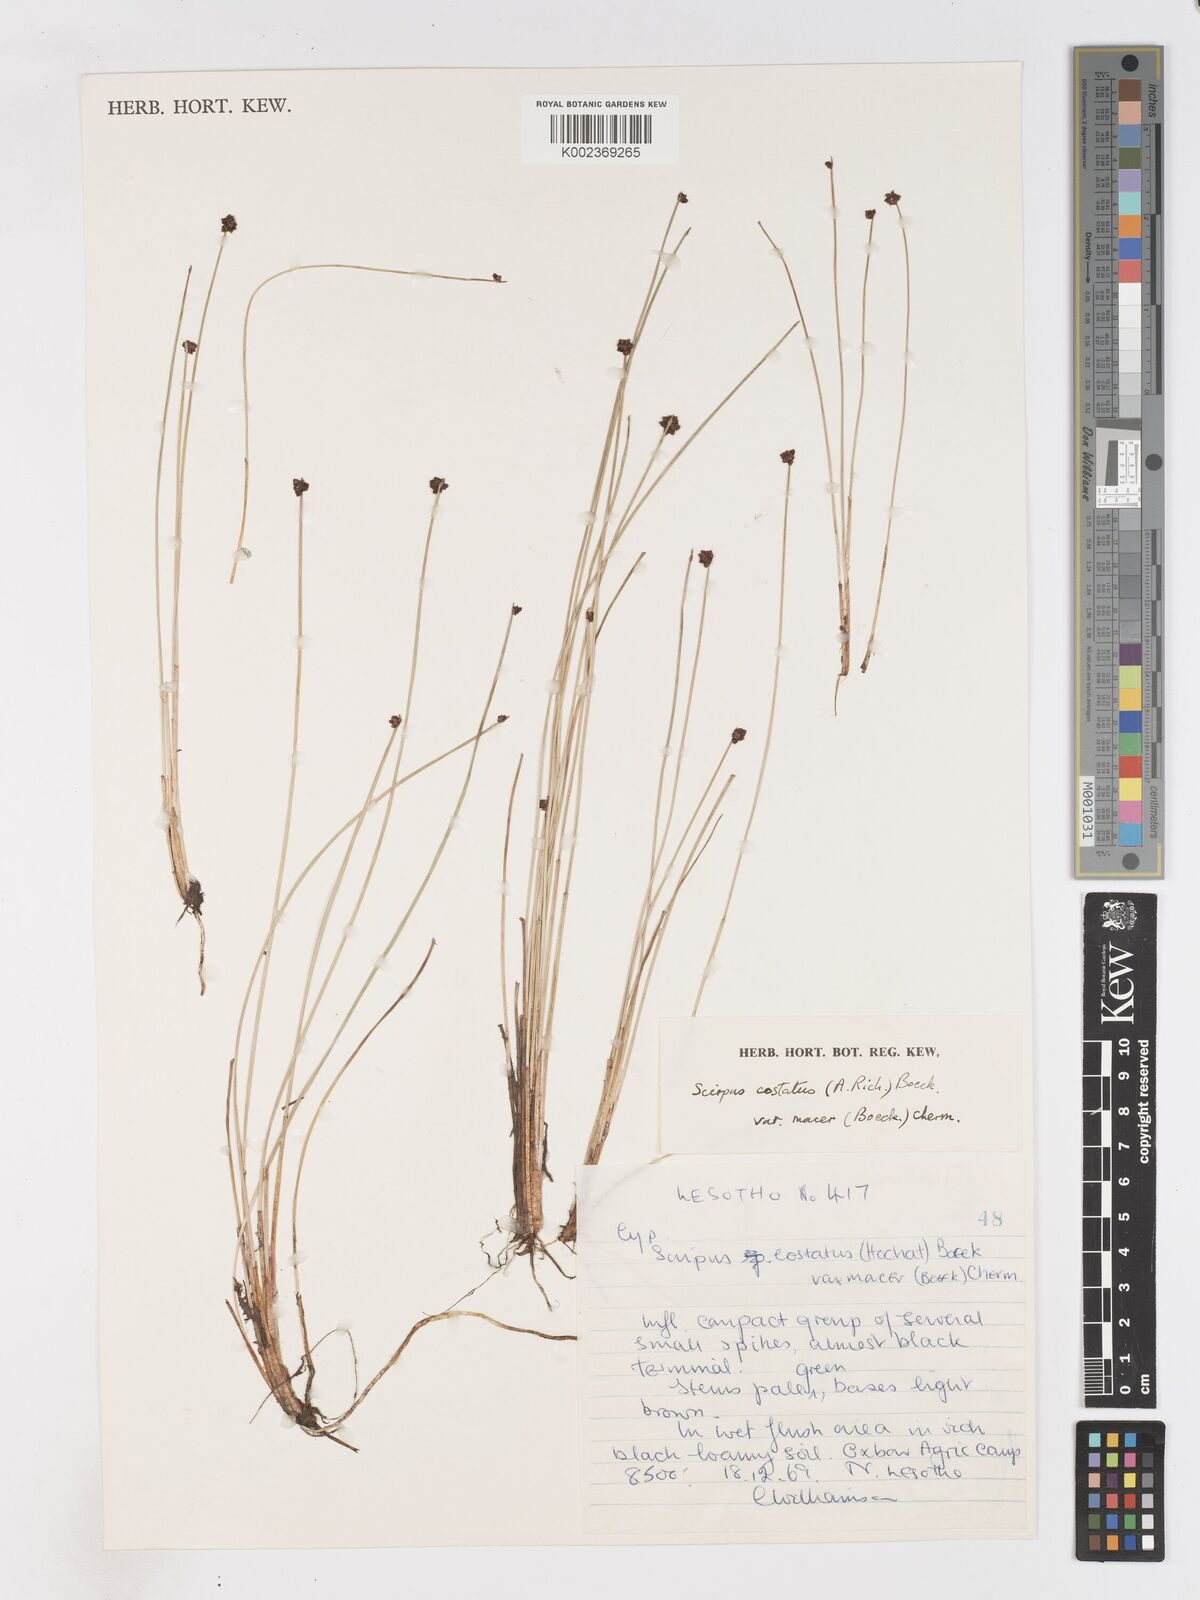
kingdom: Plantae
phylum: Tracheophyta
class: Liliopsida
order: Poales
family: Cyperaceae
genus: Isolepis
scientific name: Isolepis costata
